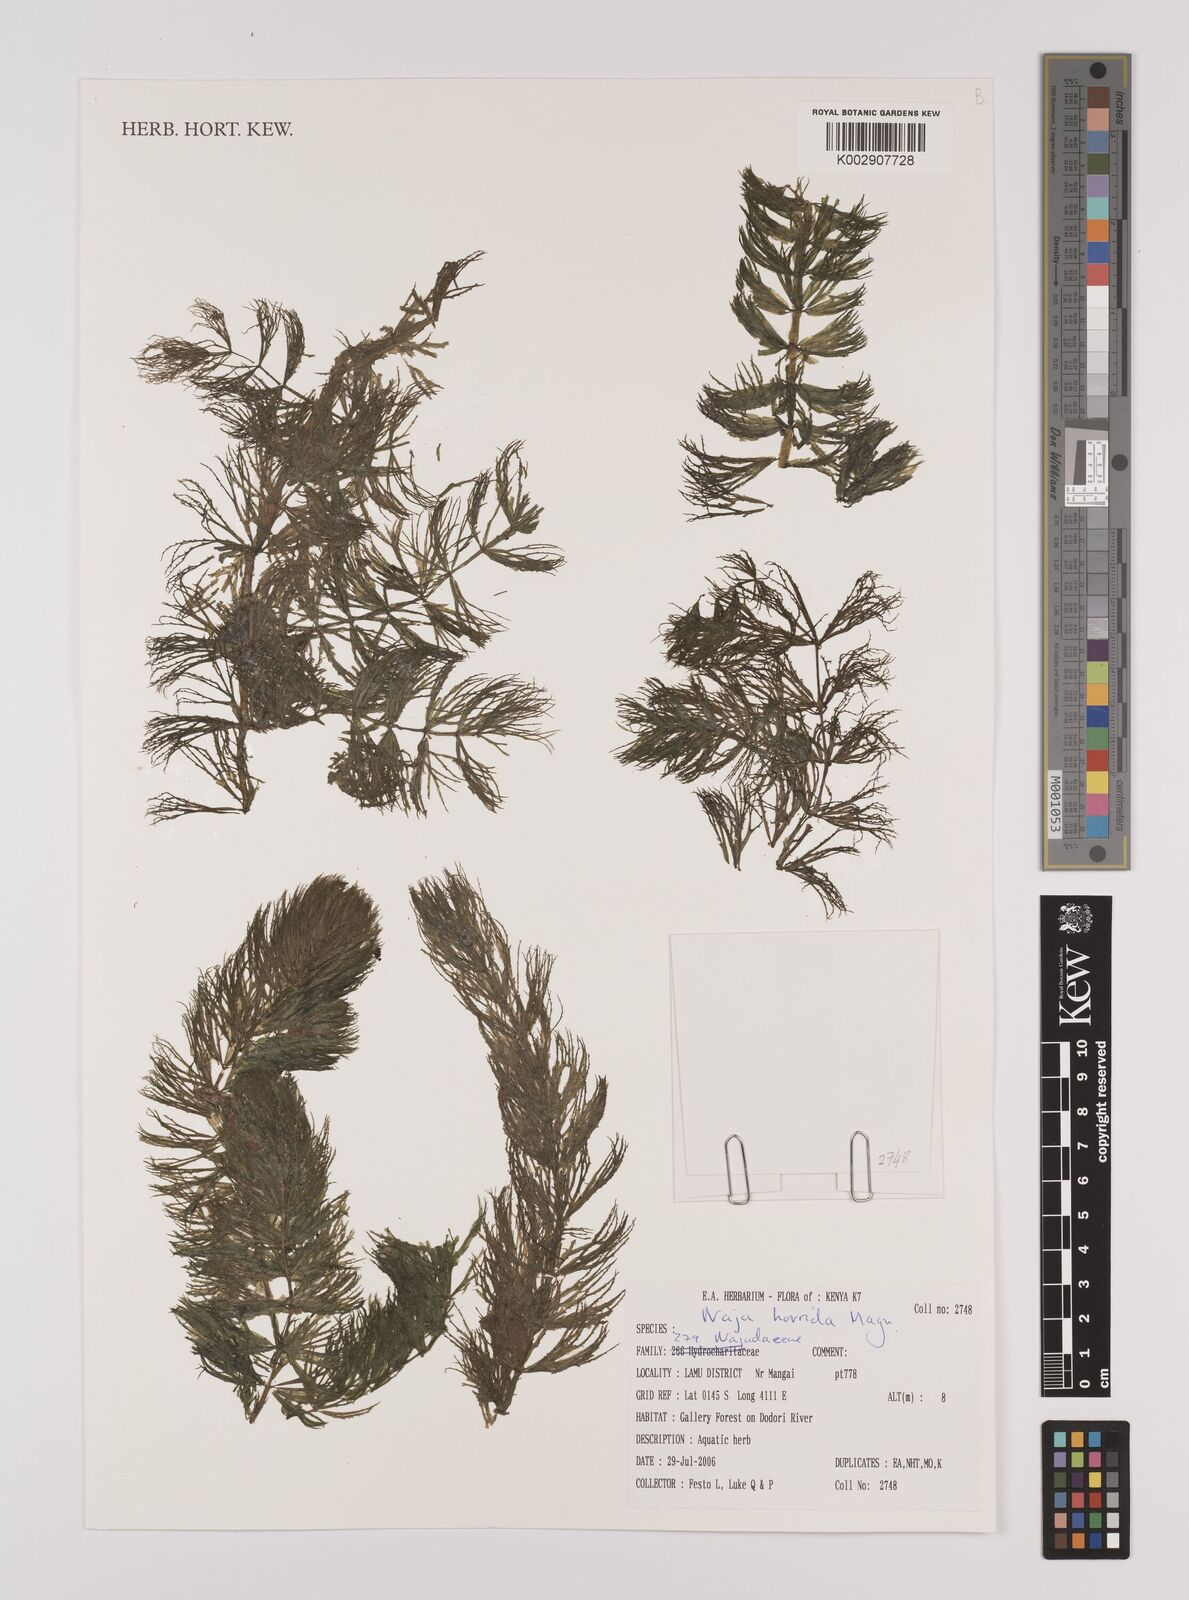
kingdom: Plantae
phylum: Tracheophyta
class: Liliopsida
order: Alismatales
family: Hydrocharitaceae
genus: Najas
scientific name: Najas horrida
